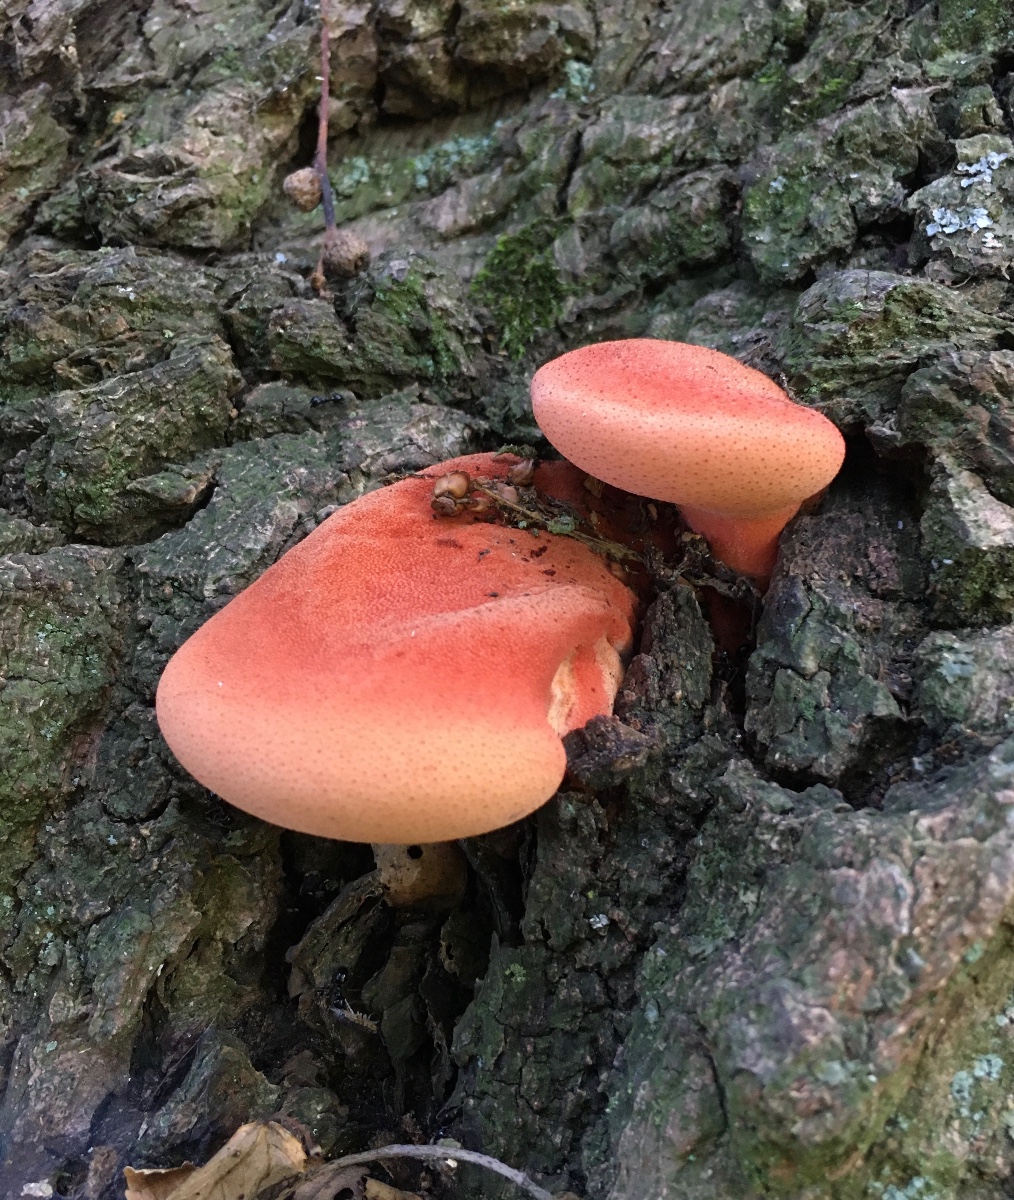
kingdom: Fungi
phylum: Basidiomycota
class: Agaricomycetes
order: Agaricales
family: Fistulinaceae
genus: Fistulina
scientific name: Fistulina hepatica
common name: oksetunge
